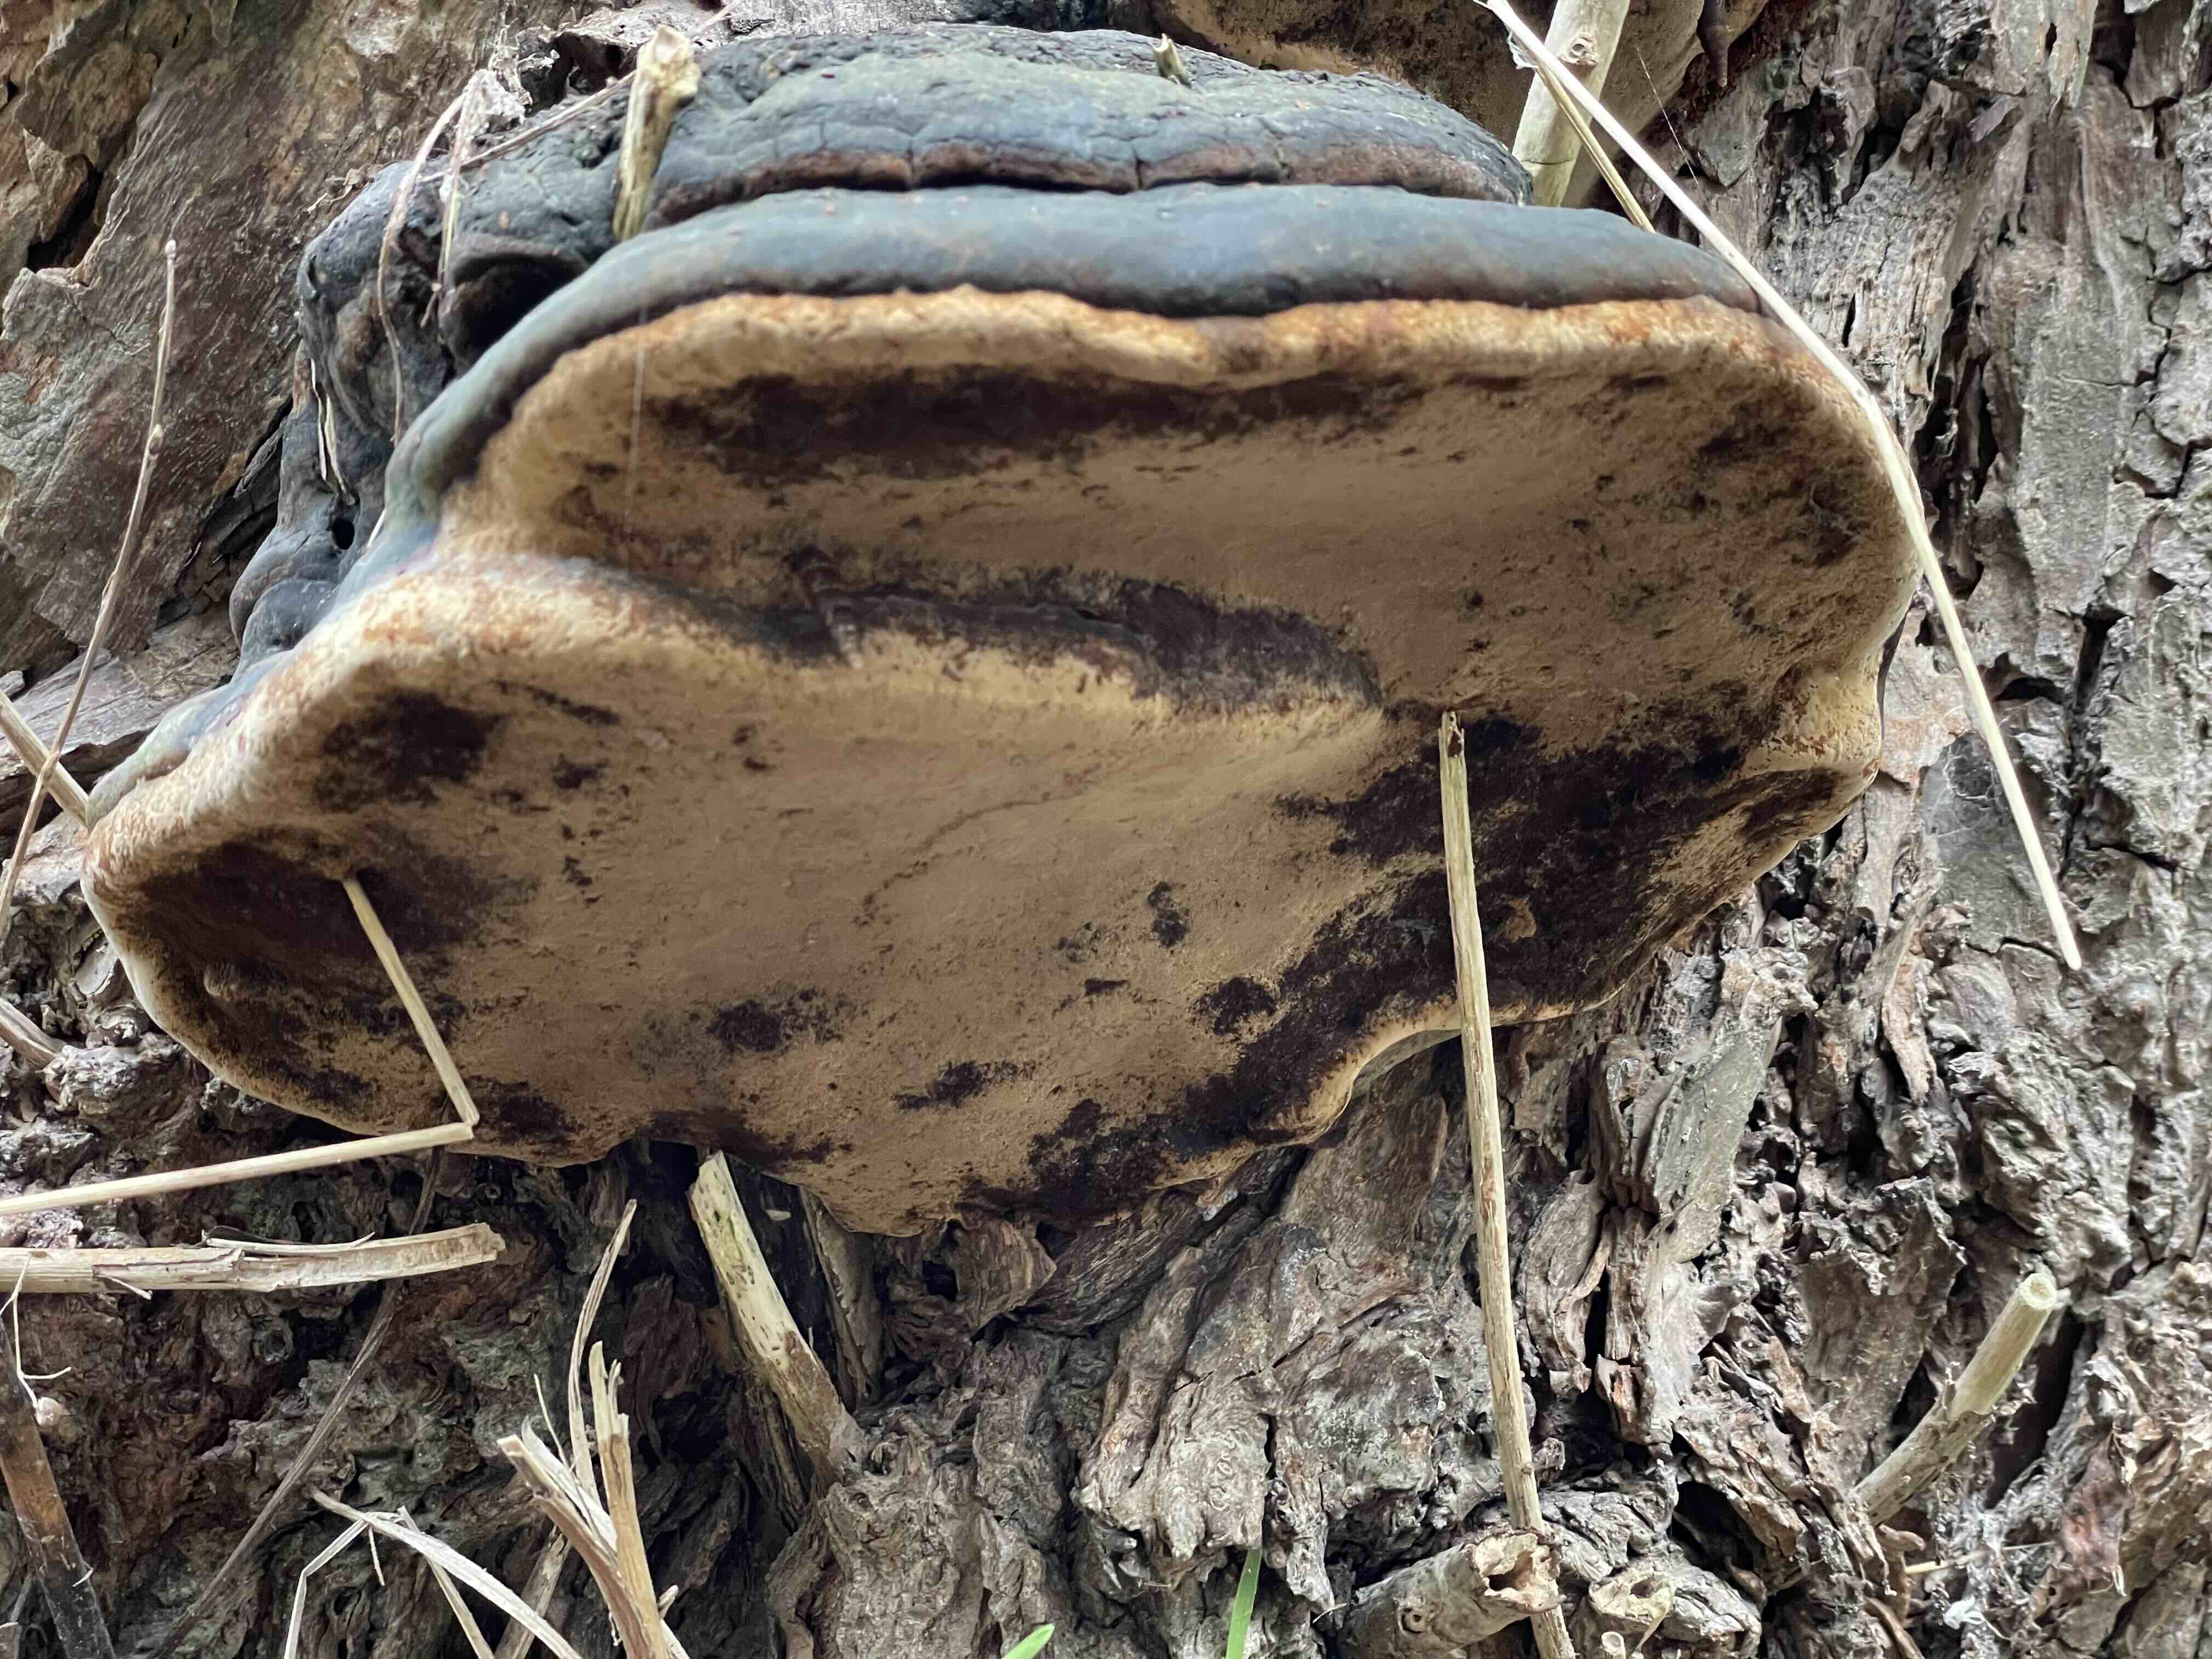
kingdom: Fungi
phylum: Basidiomycota
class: Agaricomycetes
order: Hymenochaetales
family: Hymenochaetaceae
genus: Phellinus
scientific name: Phellinus igniarius
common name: almindelig ildporesvamp
